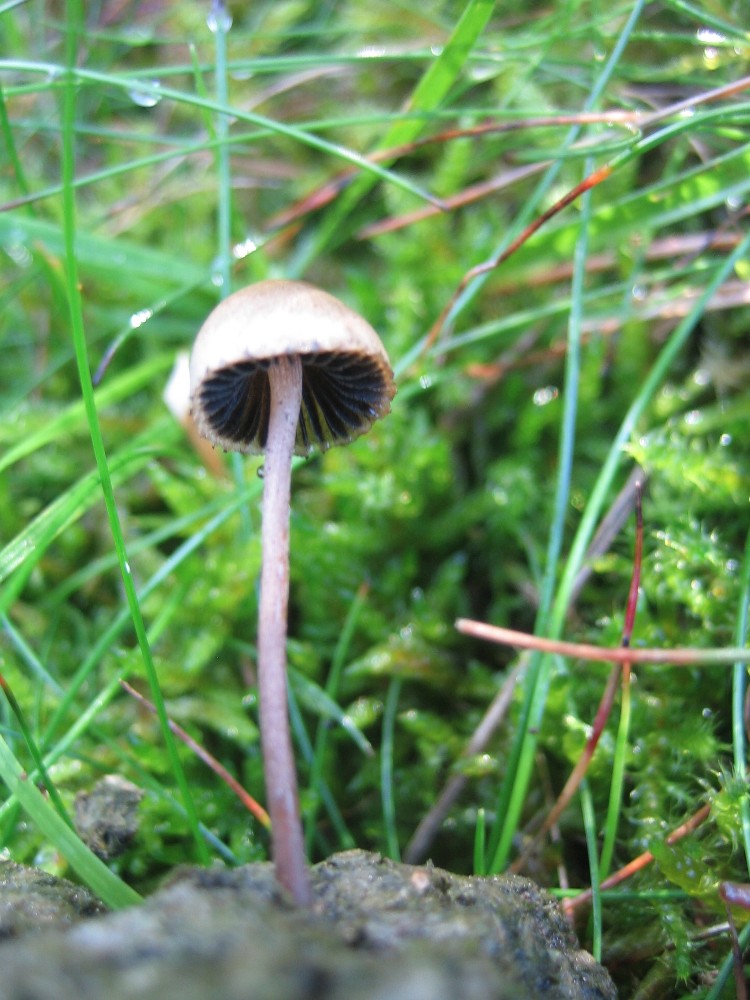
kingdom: Fungi
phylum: Basidiomycota
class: Agaricomycetes
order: Agaricales
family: Bolbitiaceae
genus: Panaeolus
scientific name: Panaeolus papilionaceus
